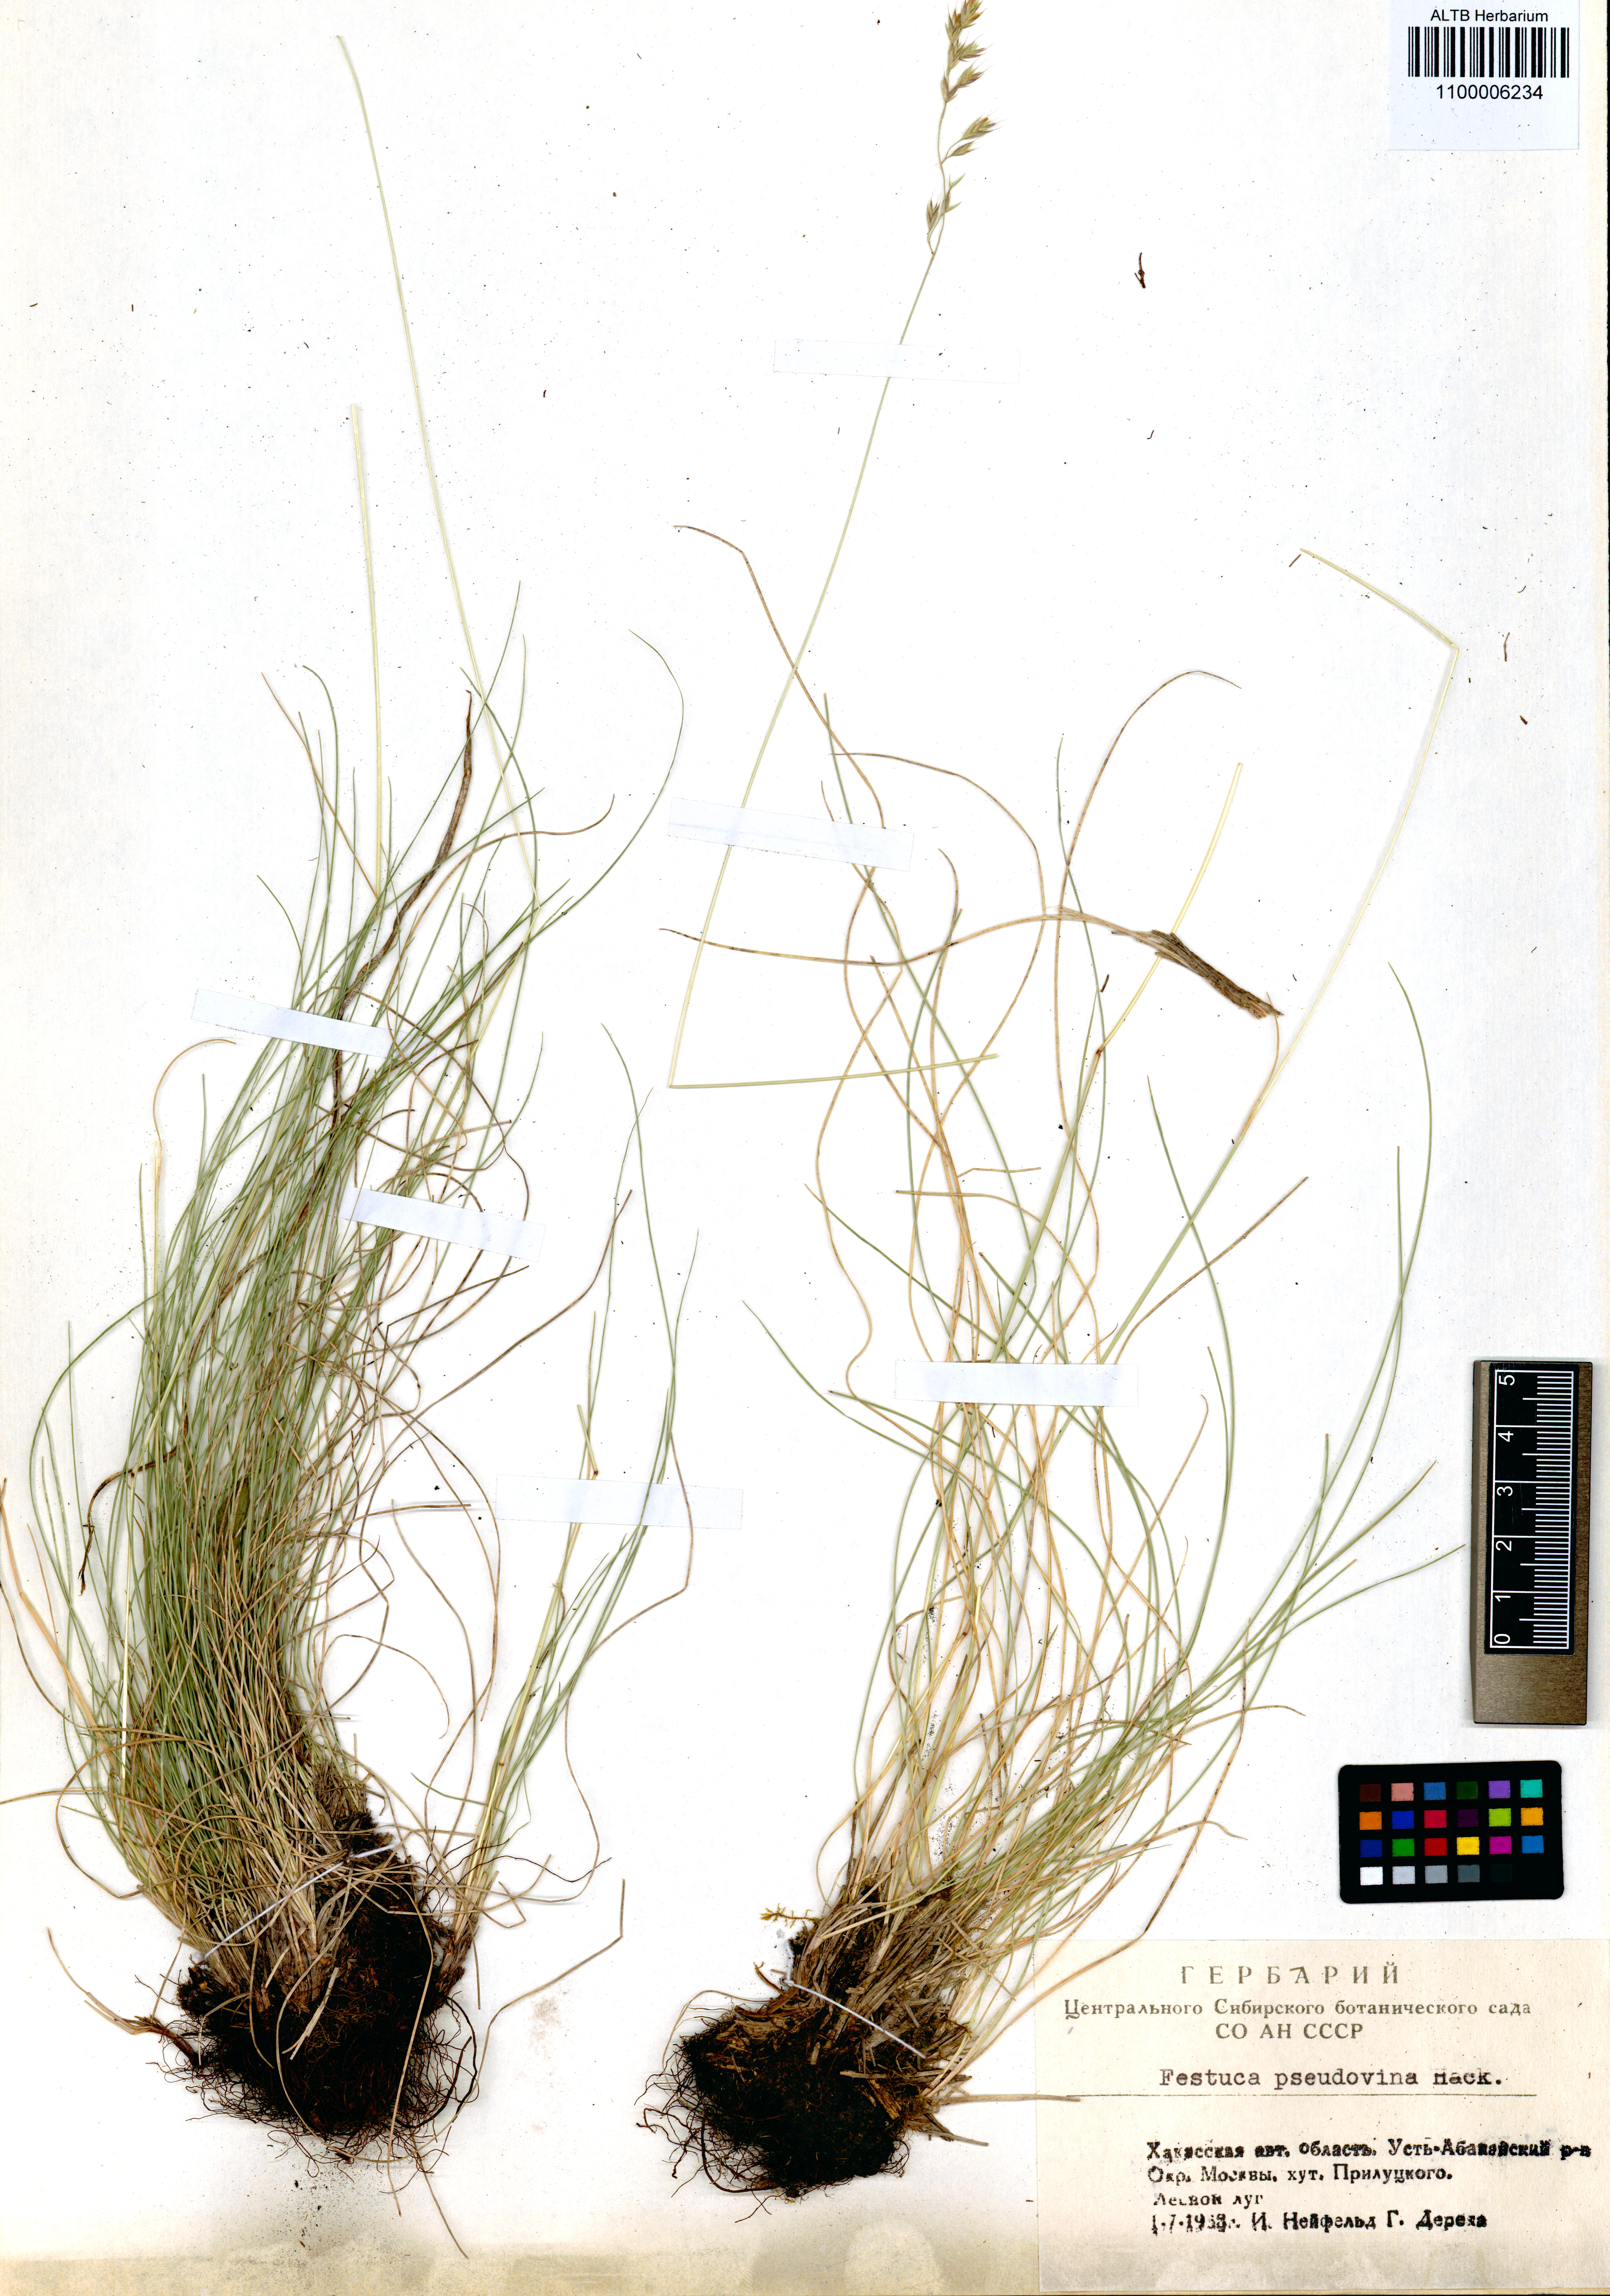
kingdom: Plantae
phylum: Tracheophyta
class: Liliopsida
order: Poales
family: Poaceae
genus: Festuca
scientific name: Festuca pulchra
